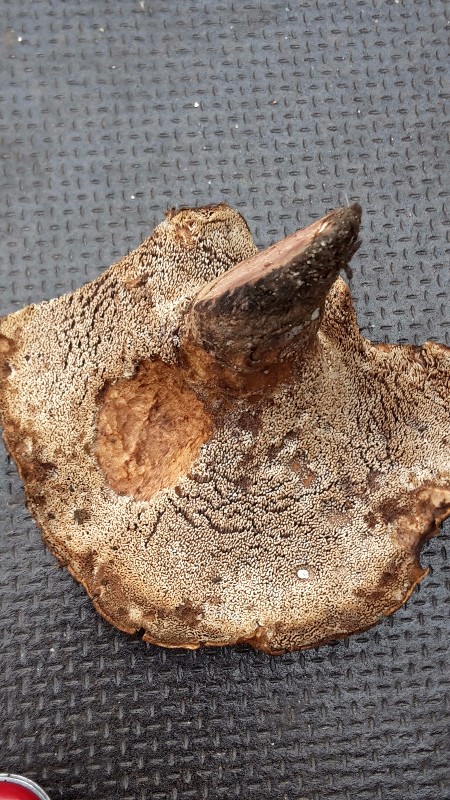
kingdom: Fungi
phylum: Basidiomycota
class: Agaricomycetes
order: Thelephorales
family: Bankeraceae
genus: Hydnellum
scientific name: Hydnellum lepidum
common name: skrænt-korkpigsvamp
